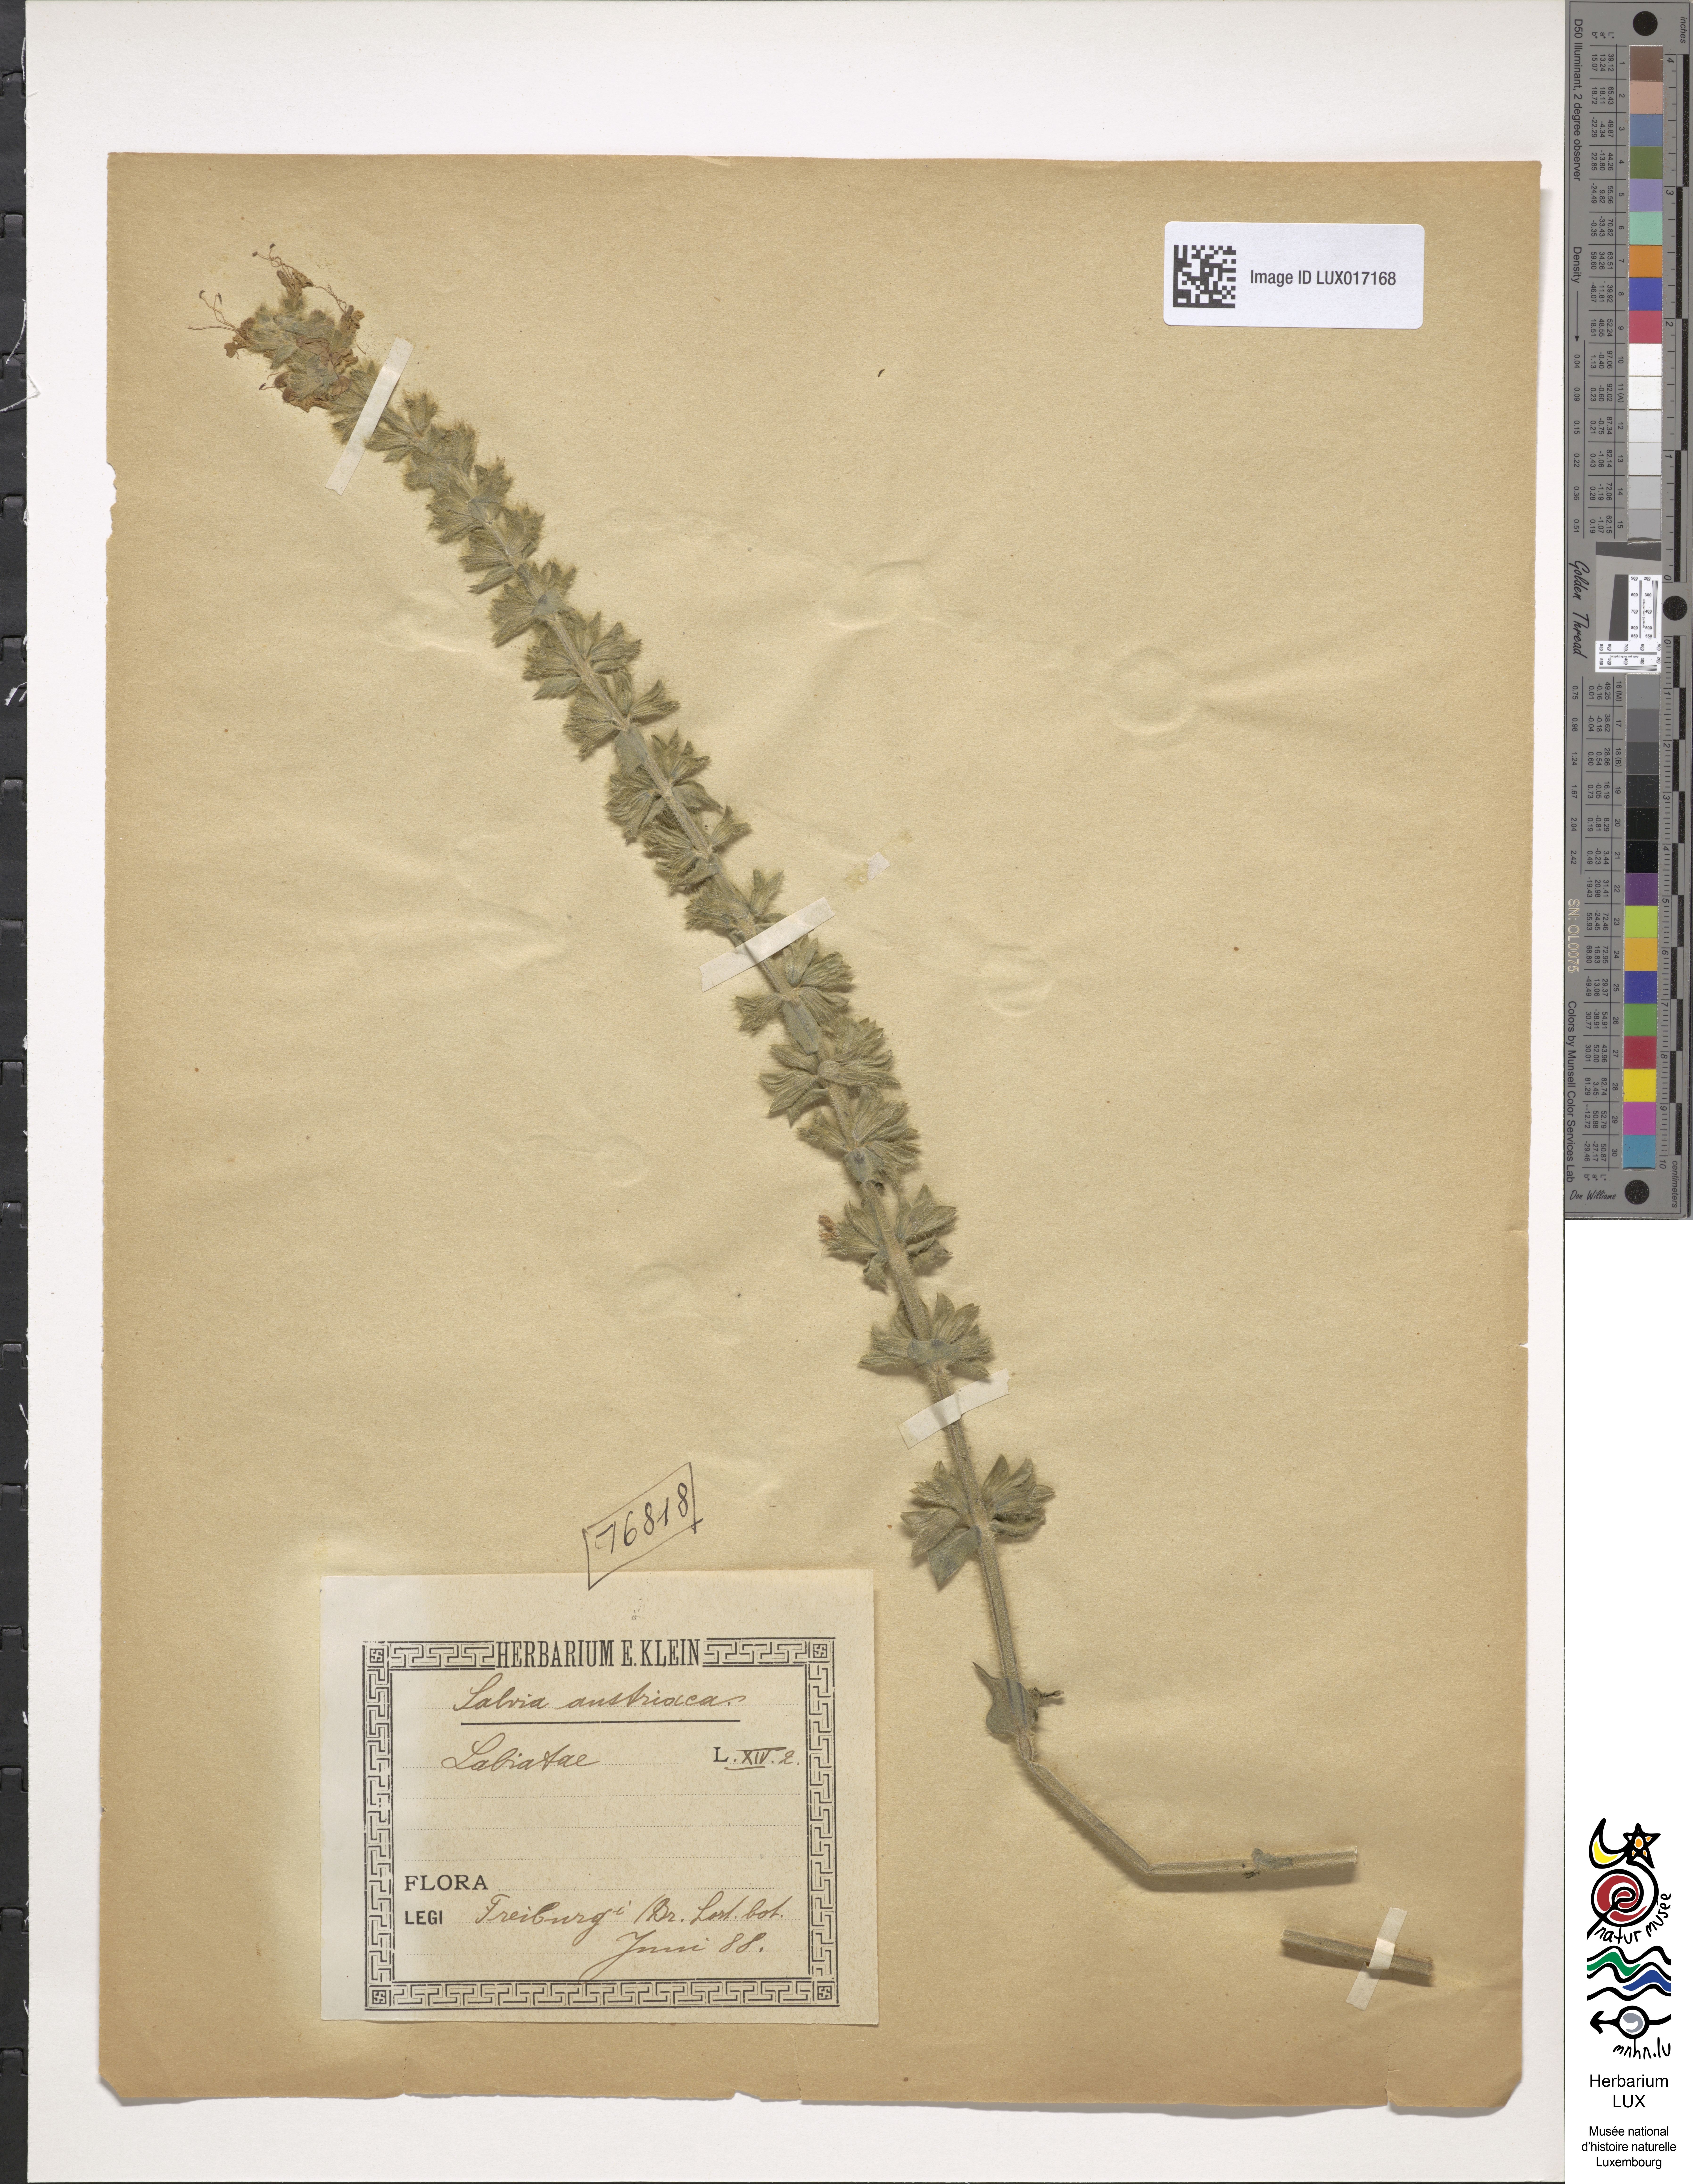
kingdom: Plantae
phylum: Tracheophyta
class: Magnoliopsida
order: Lamiales
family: Lamiaceae
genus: Salvia
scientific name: Salvia austriaca
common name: Austrian sage
